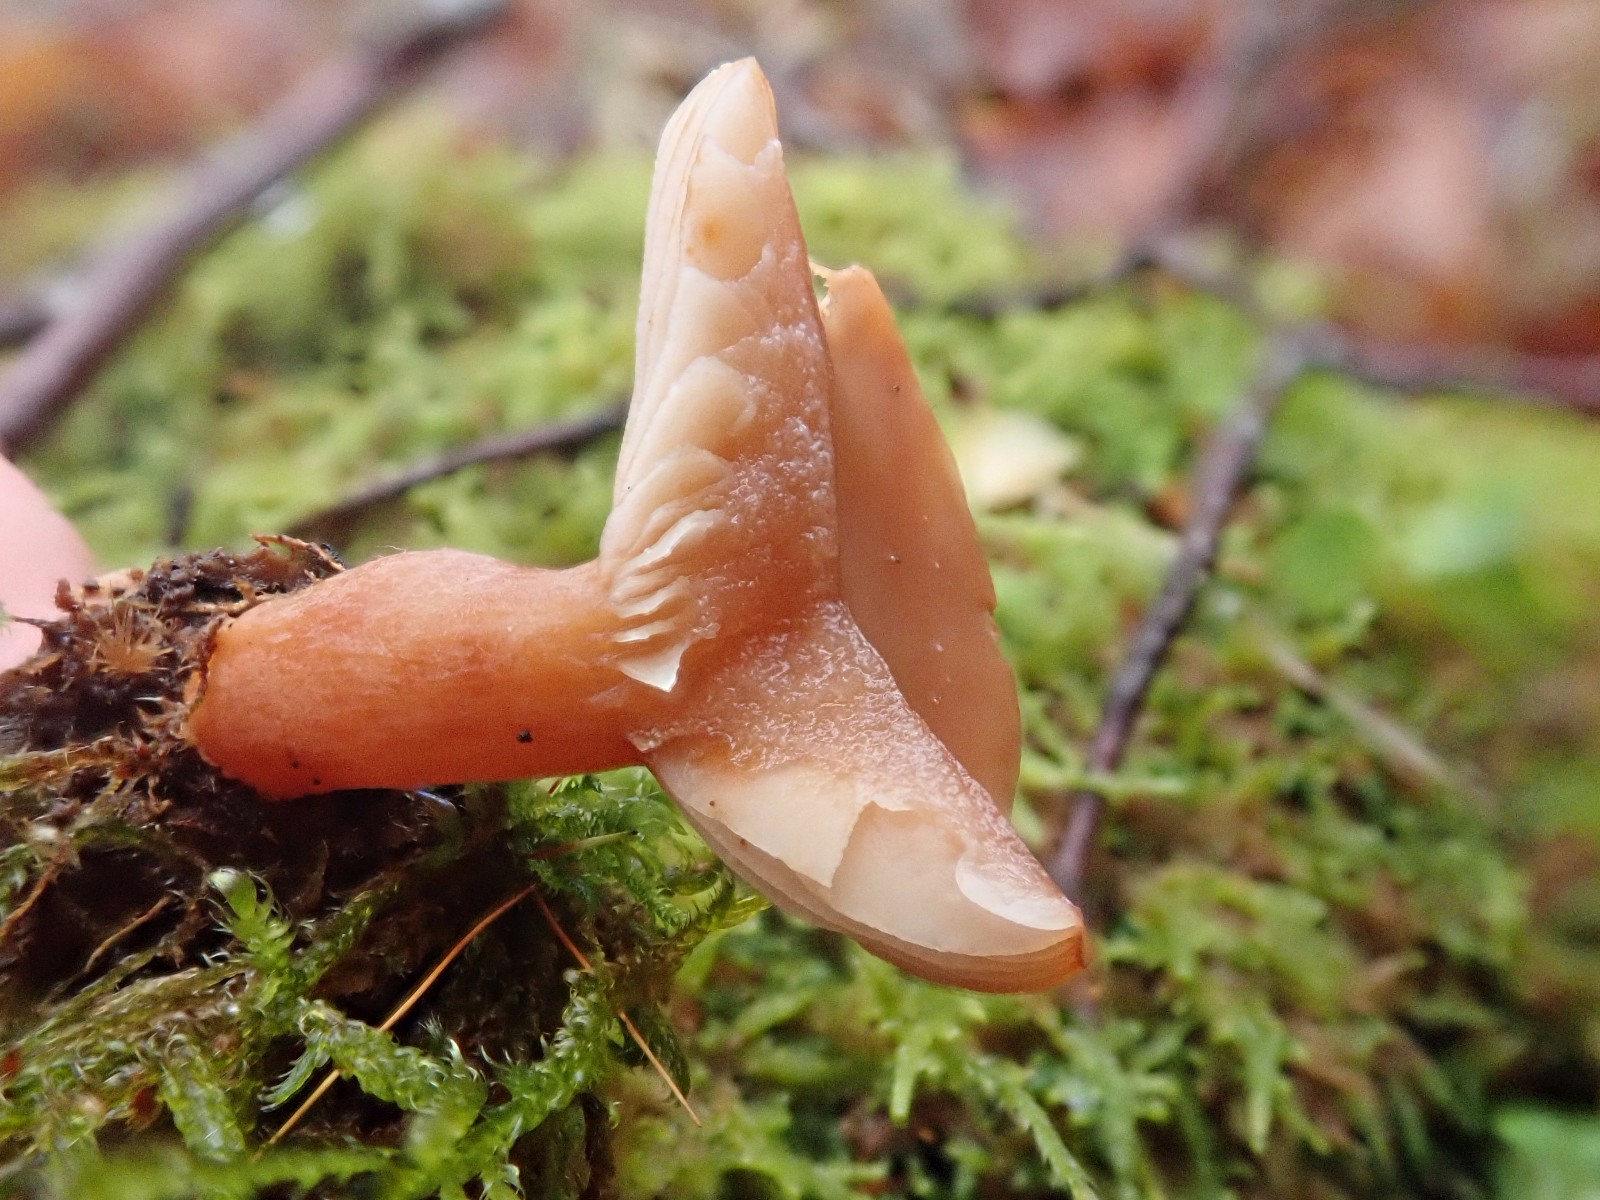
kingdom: Fungi
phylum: Basidiomycota
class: Agaricomycetes
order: Russulales
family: Russulaceae
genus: Lactarius
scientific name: Lactarius subdulcis
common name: sødlig mælkehat
